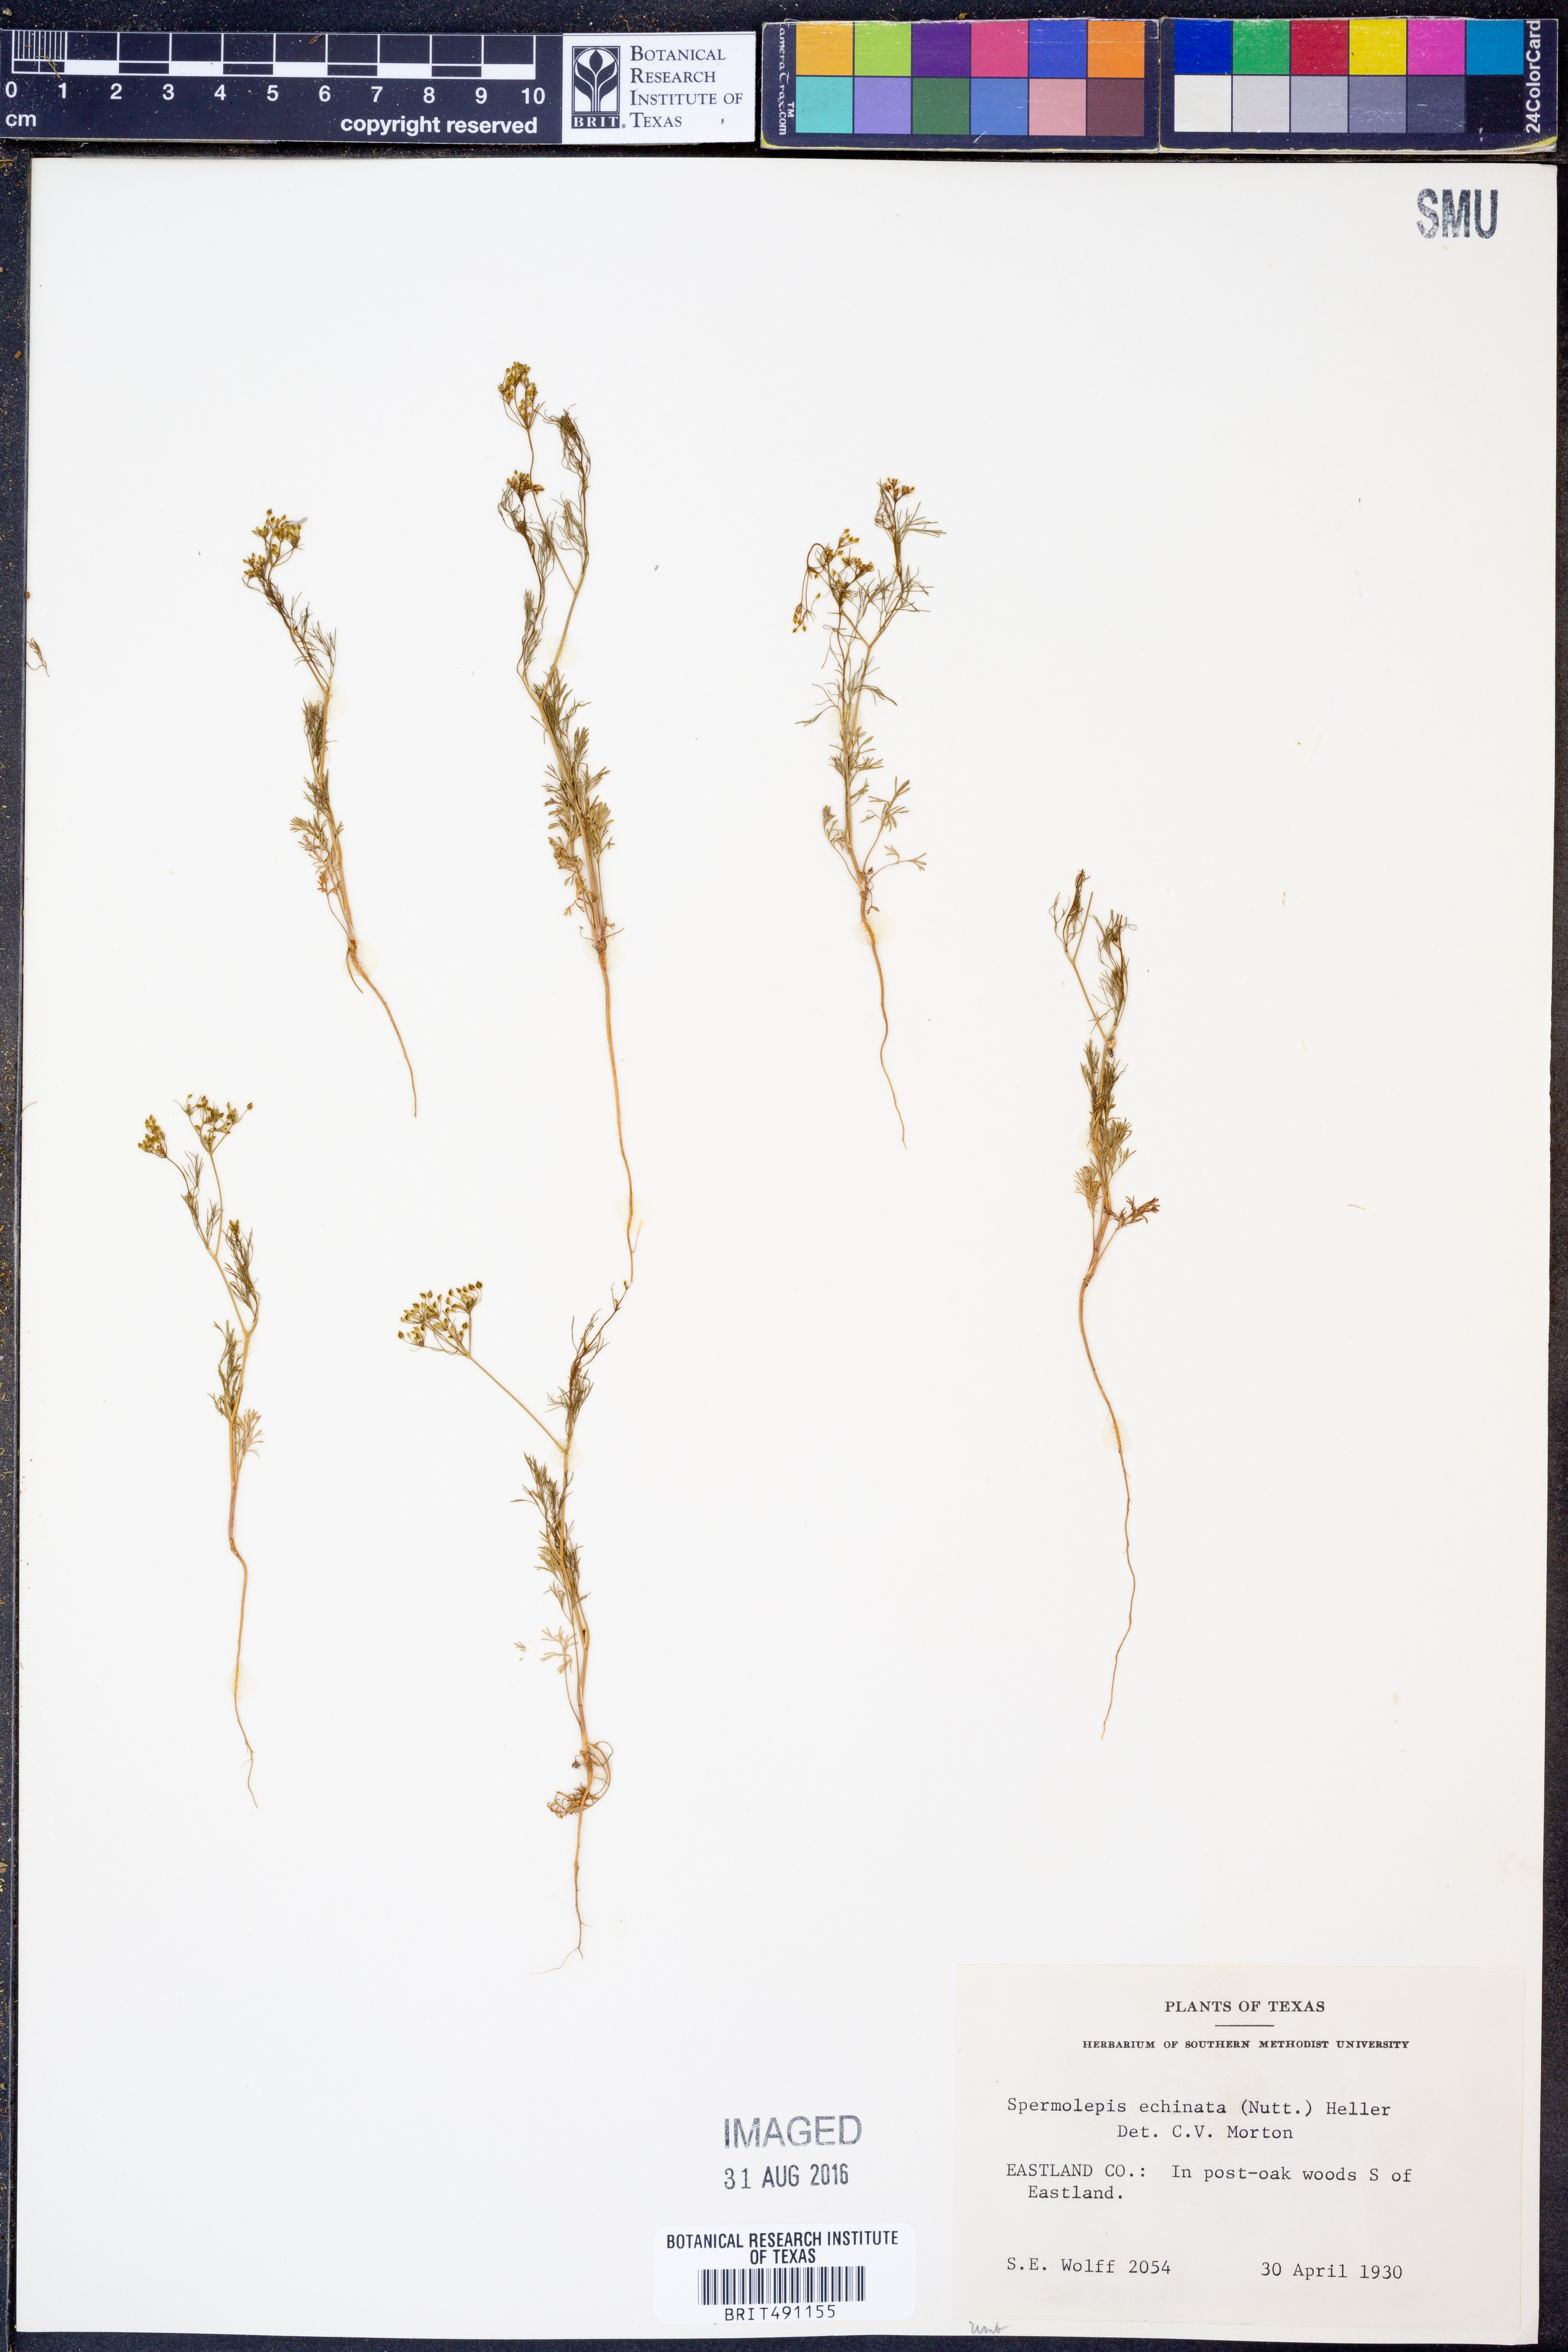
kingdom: Plantae
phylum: Tracheophyta
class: Magnoliopsida
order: Apiales
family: Apiaceae
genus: Spermolepis
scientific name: Spermolepis echinata
